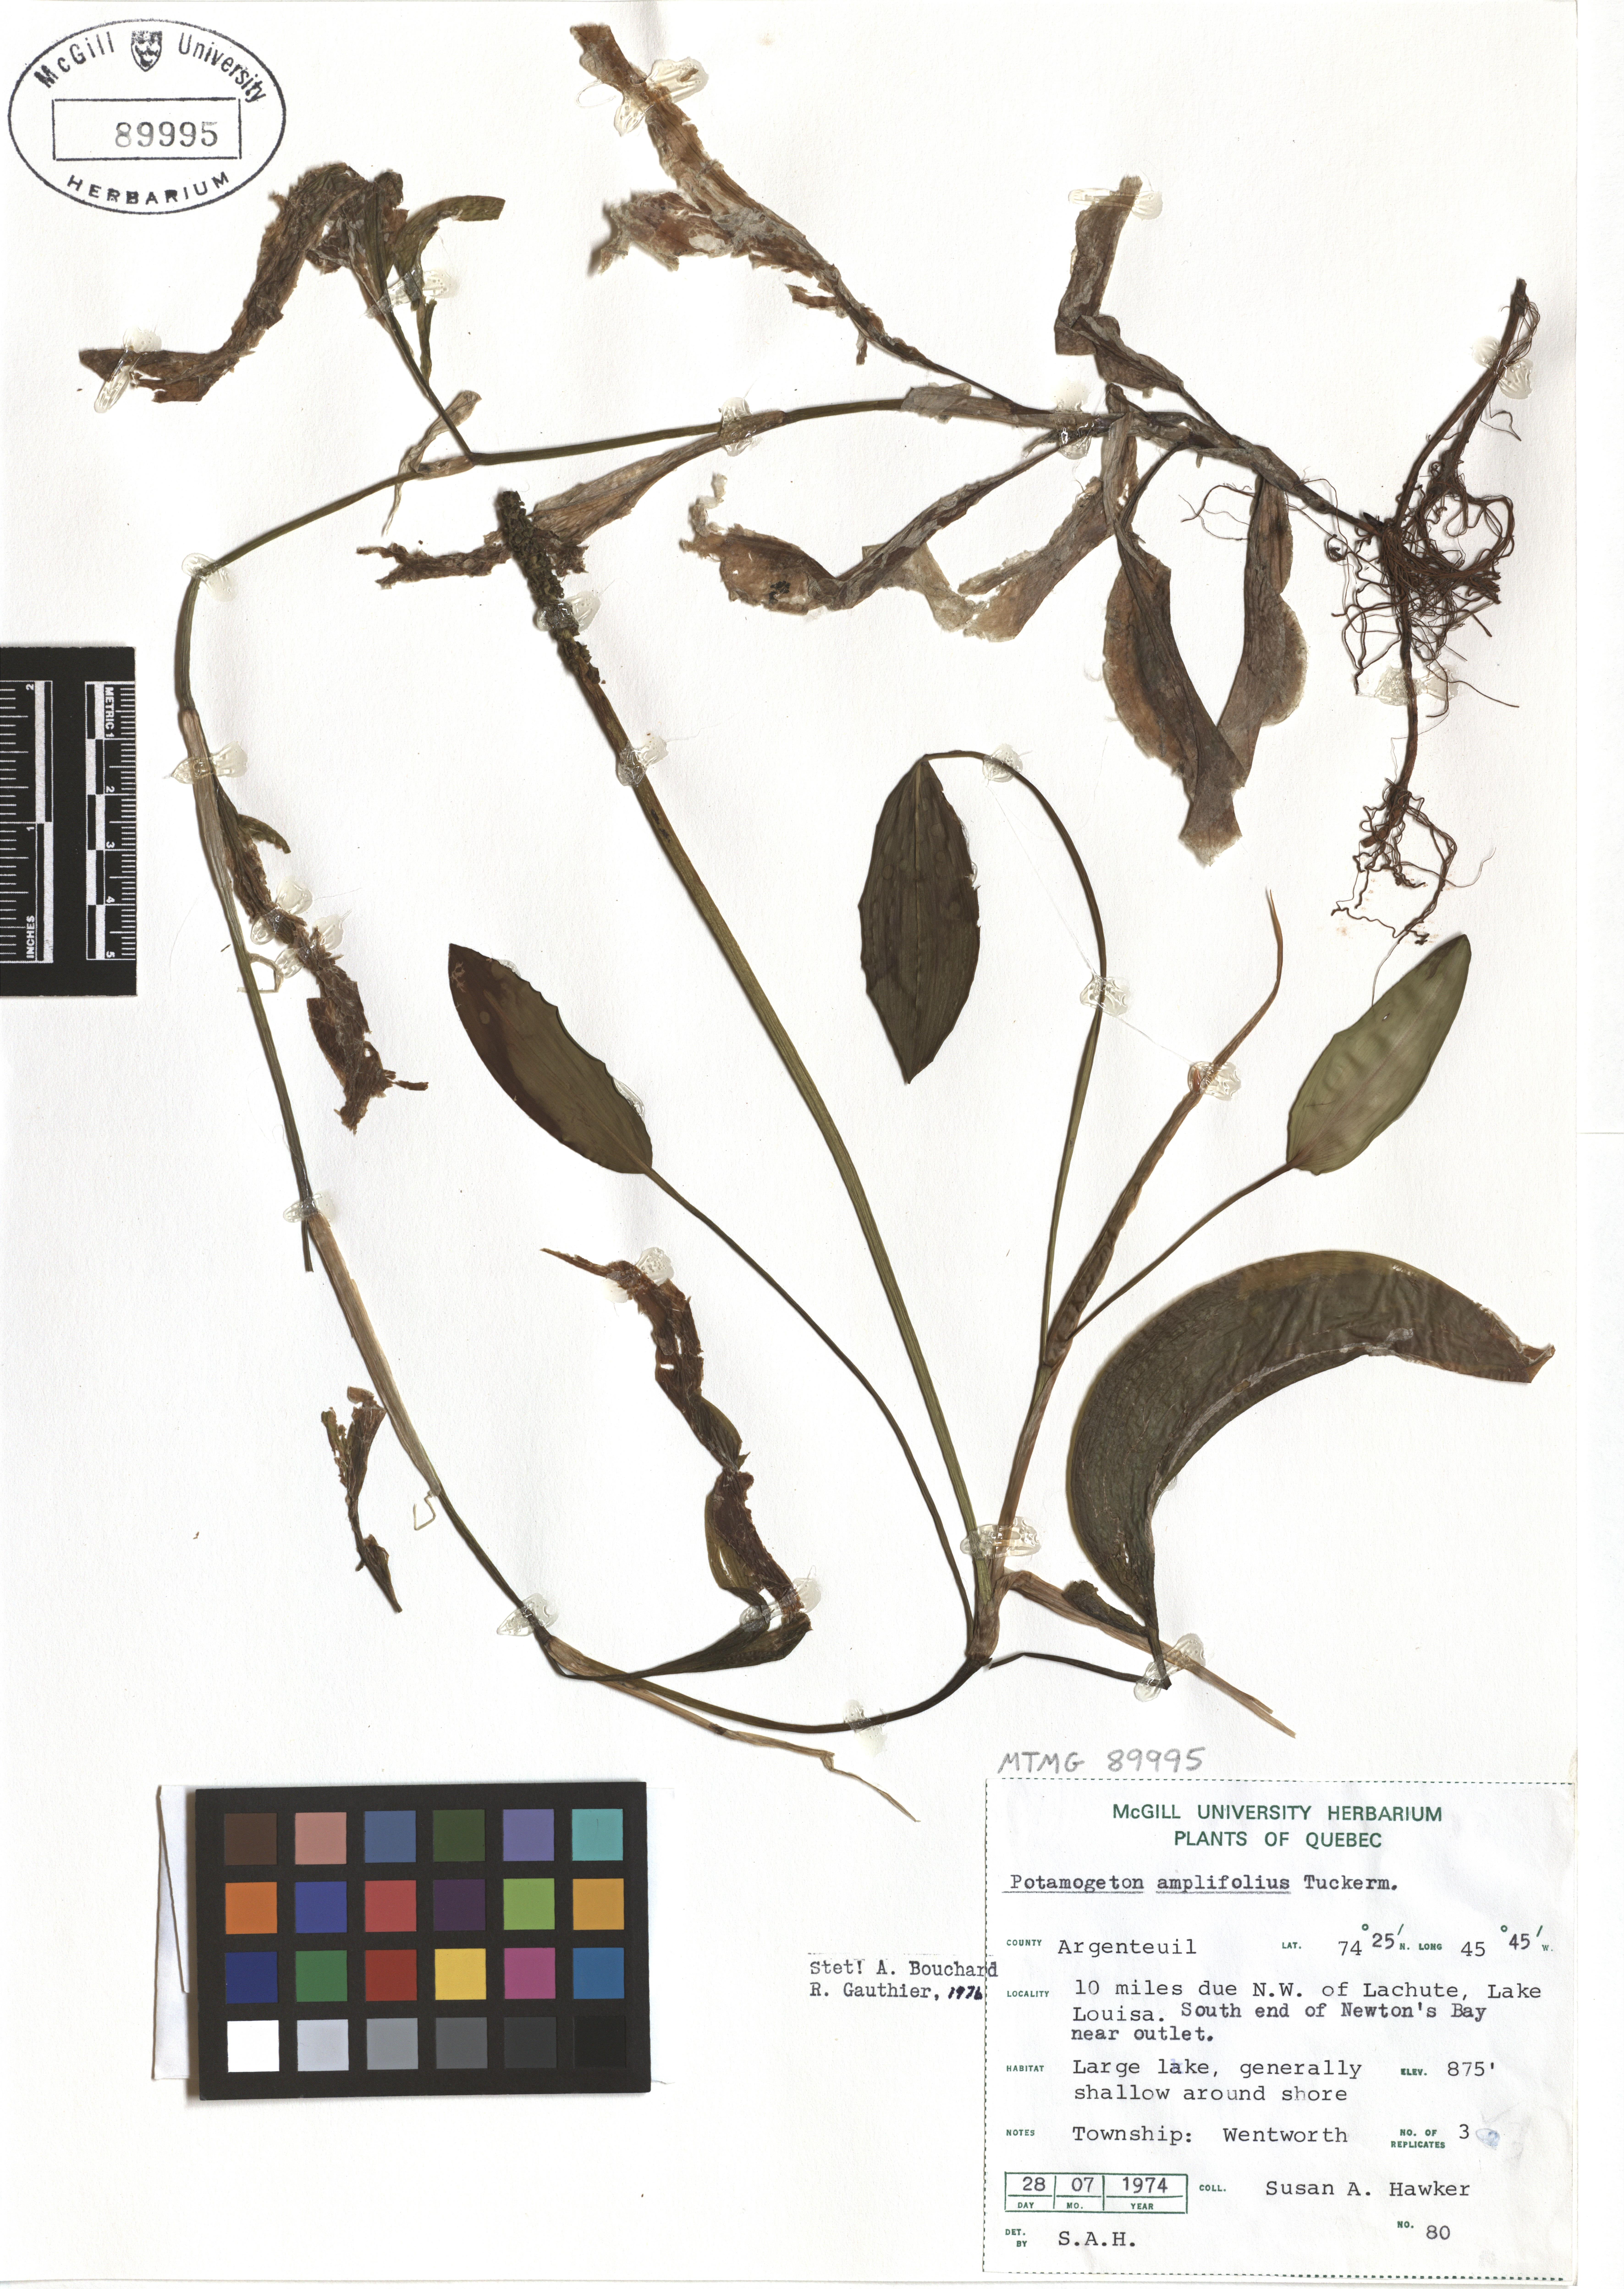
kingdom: Plantae
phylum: Tracheophyta
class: Liliopsida
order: Alismatales
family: Potamogetonaceae
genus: Potamogeton
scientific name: Potamogeton amplifolius
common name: Broad-leaved pondweed
